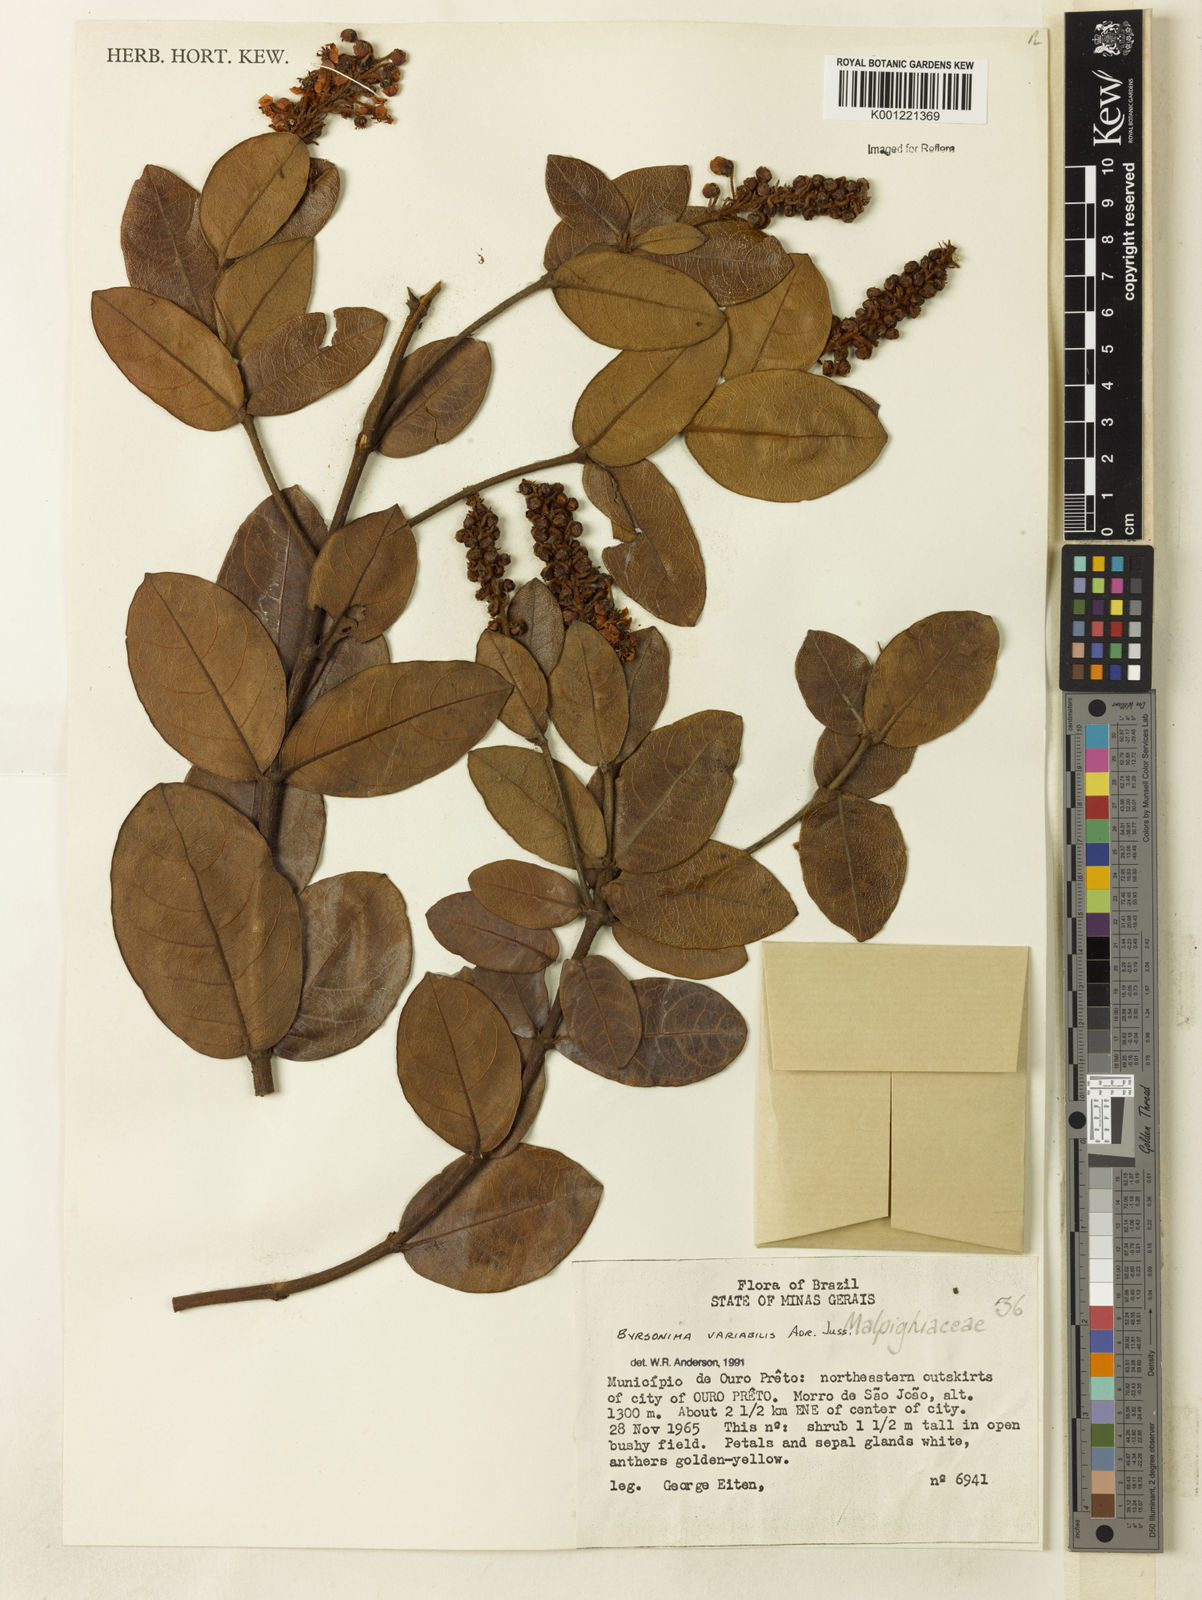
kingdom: Plantae
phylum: Tracheophyta
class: Magnoliopsida
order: Malpighiales
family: Malpighiaceae
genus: Byrsonima
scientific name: Byrsonima variabilis
